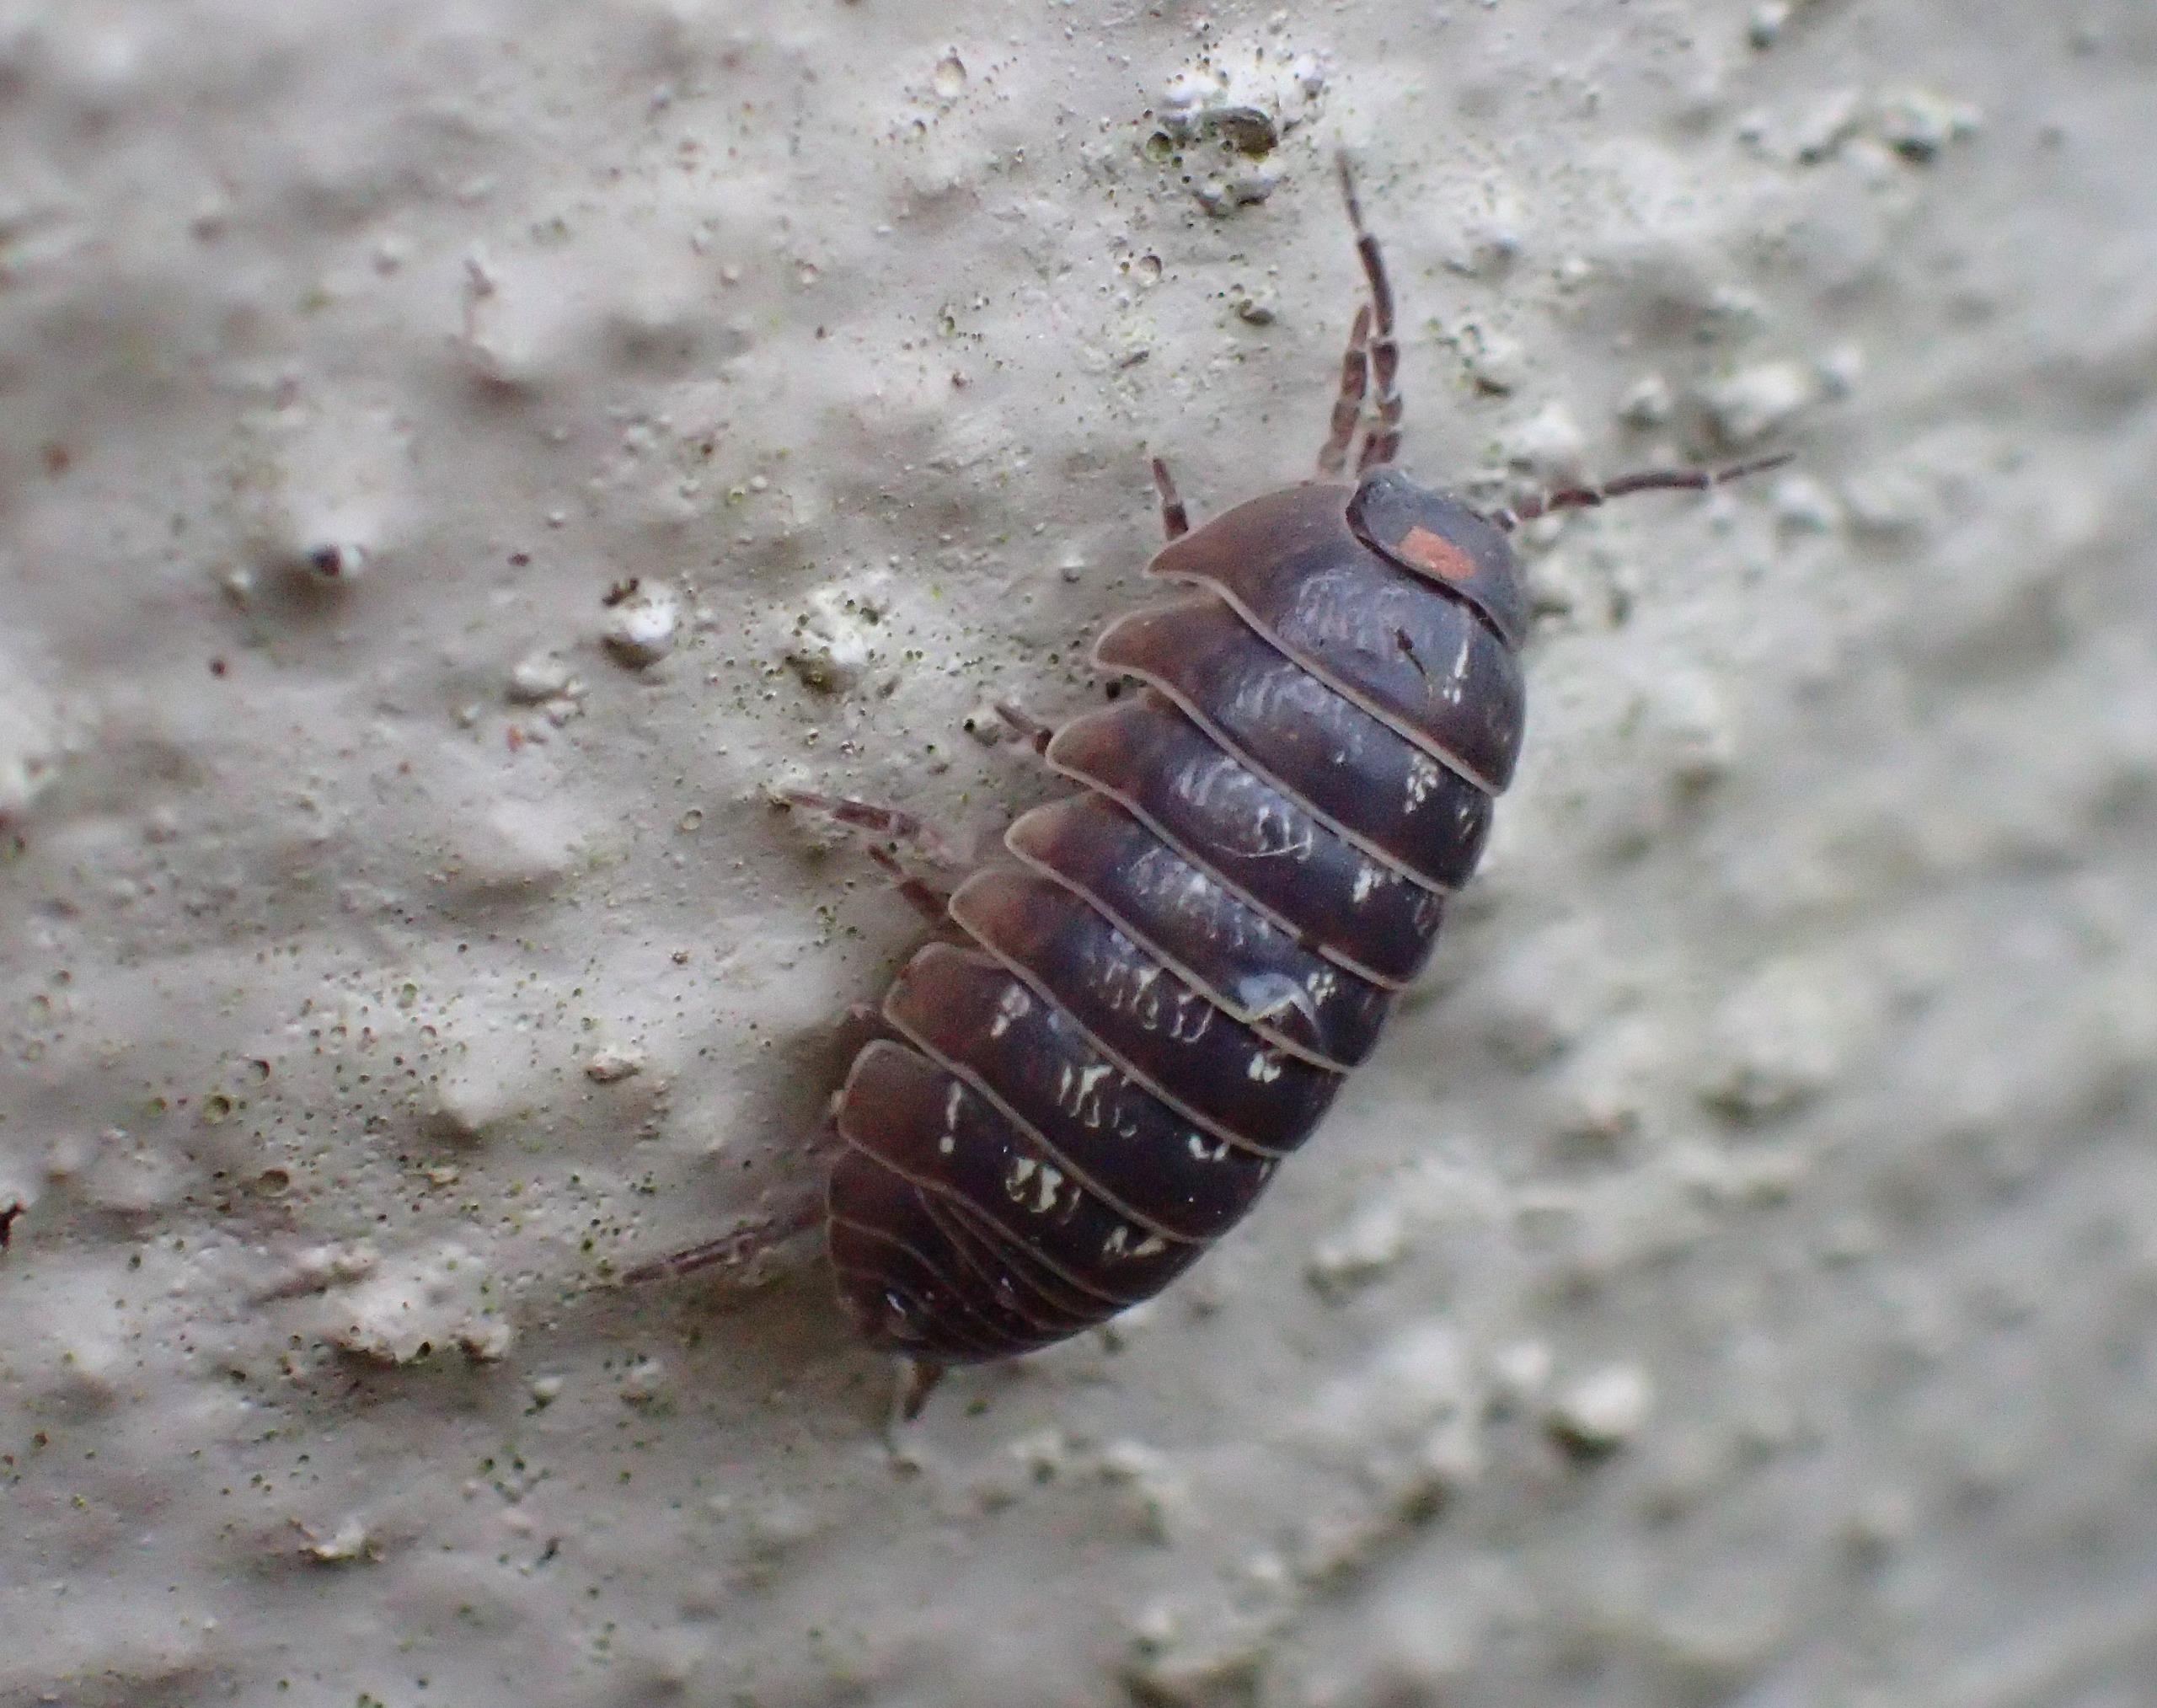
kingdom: Animalia
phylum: Arthropoda
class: Malacostraca
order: Isopoda
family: Armadillidiidae
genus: Armadillidium
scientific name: Armadillidium vulgare
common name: Almindelig kuglebænkebider
